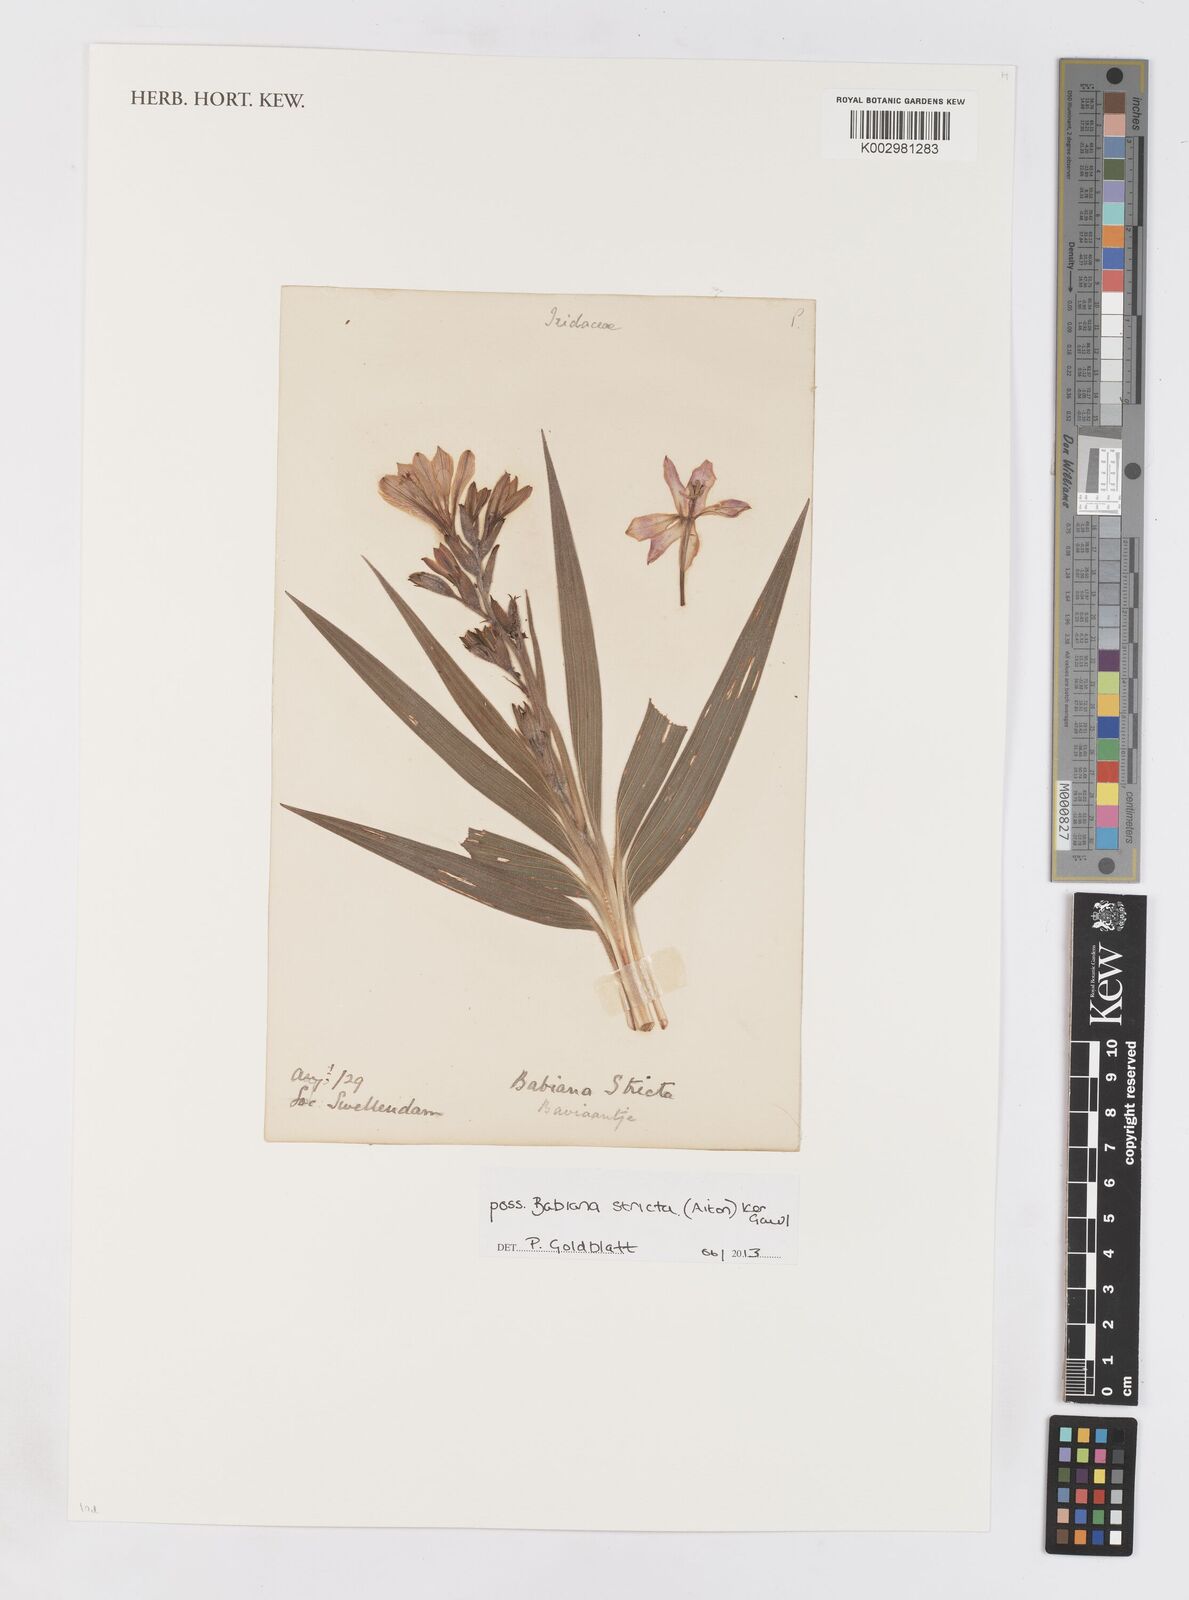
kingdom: Plantae
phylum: Tracheophyta
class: Liliopsida
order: Asparagales
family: Iridaceae
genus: Babiana
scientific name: Babiana nervosa
